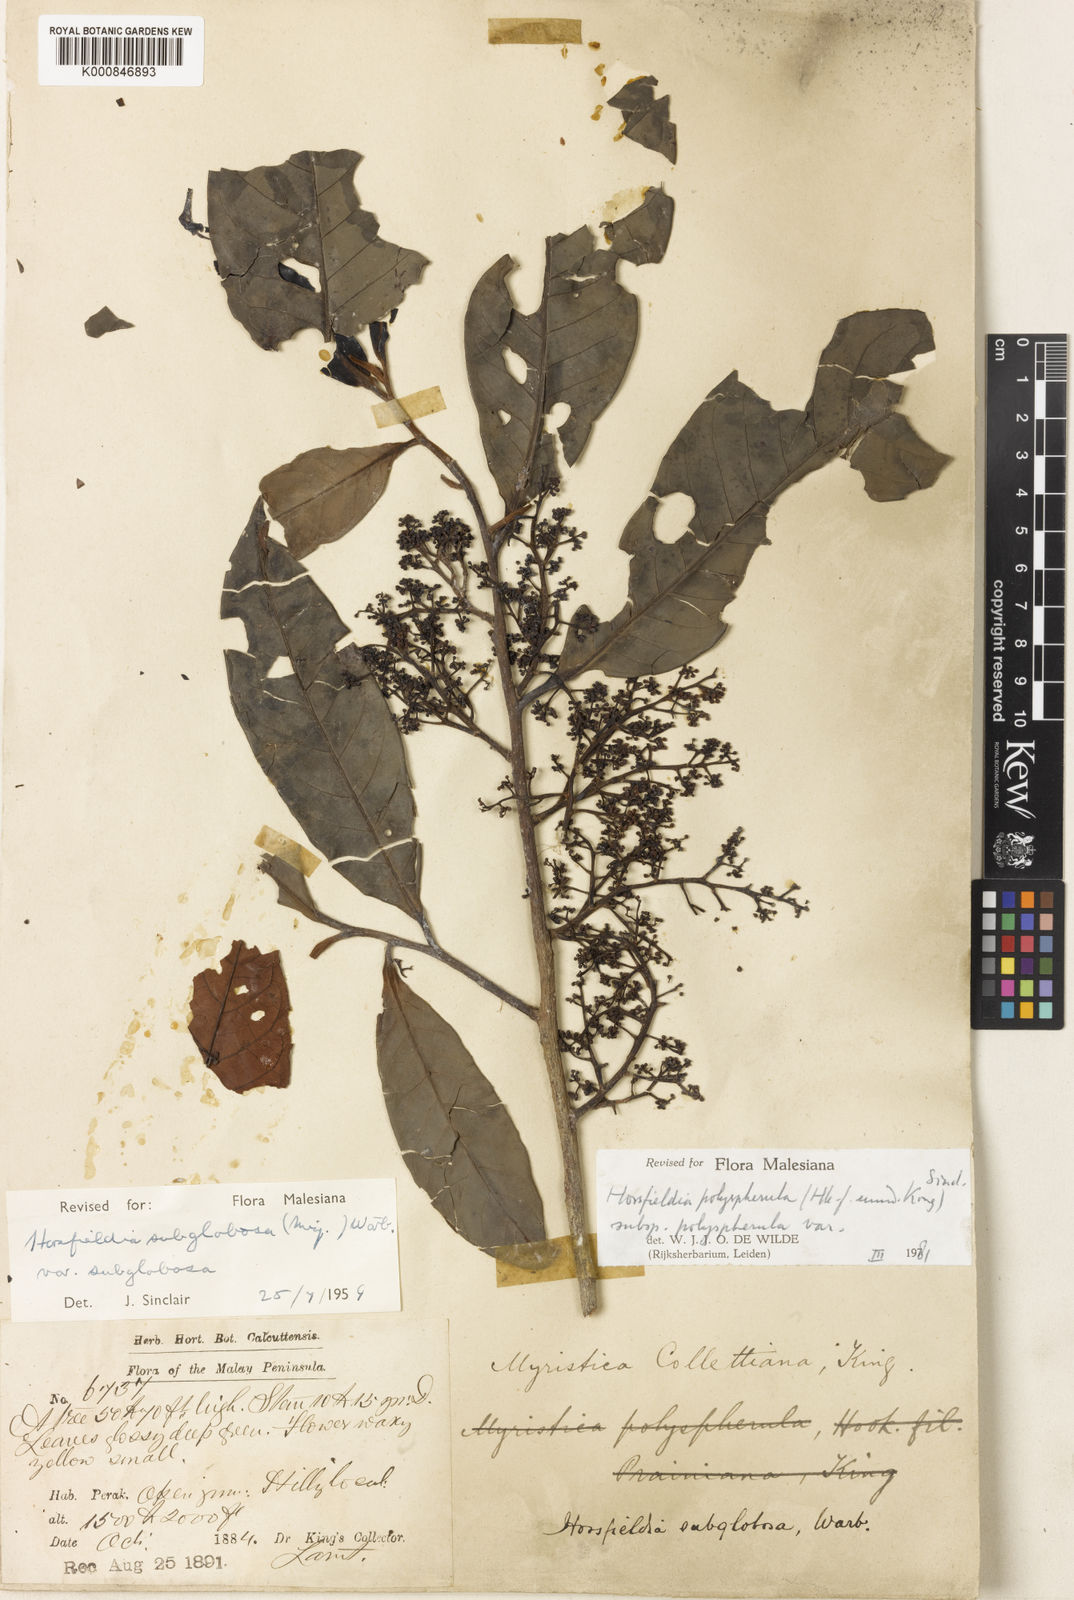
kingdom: Plantae
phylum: Tracheophyta
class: Magnoliopsida
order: Magnoliales
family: Myristicaceae
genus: Horsfieldia
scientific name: Horsfieldia polyspherula
